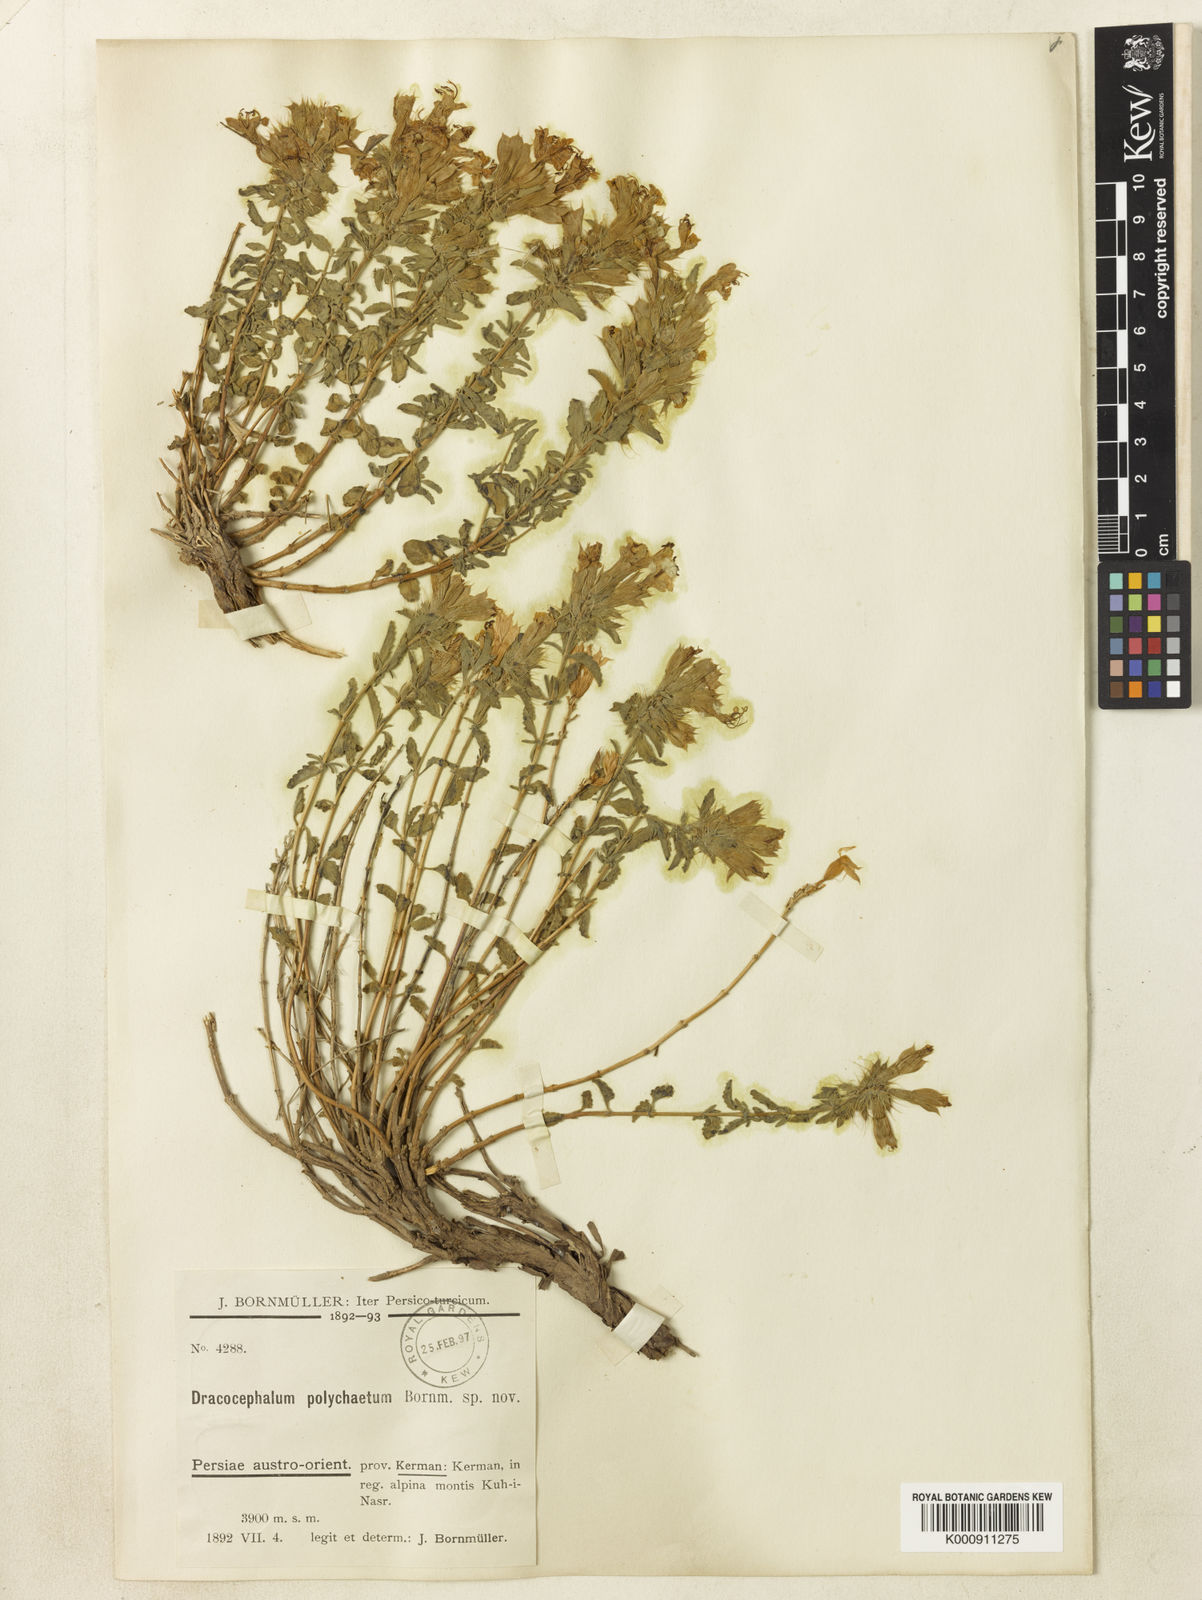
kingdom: Plantae
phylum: Tracheophyta
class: Magnoliopsida
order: Lamiales
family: Lamiaceae
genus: Dracocephalum
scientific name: Dracocephalum polychaetum
